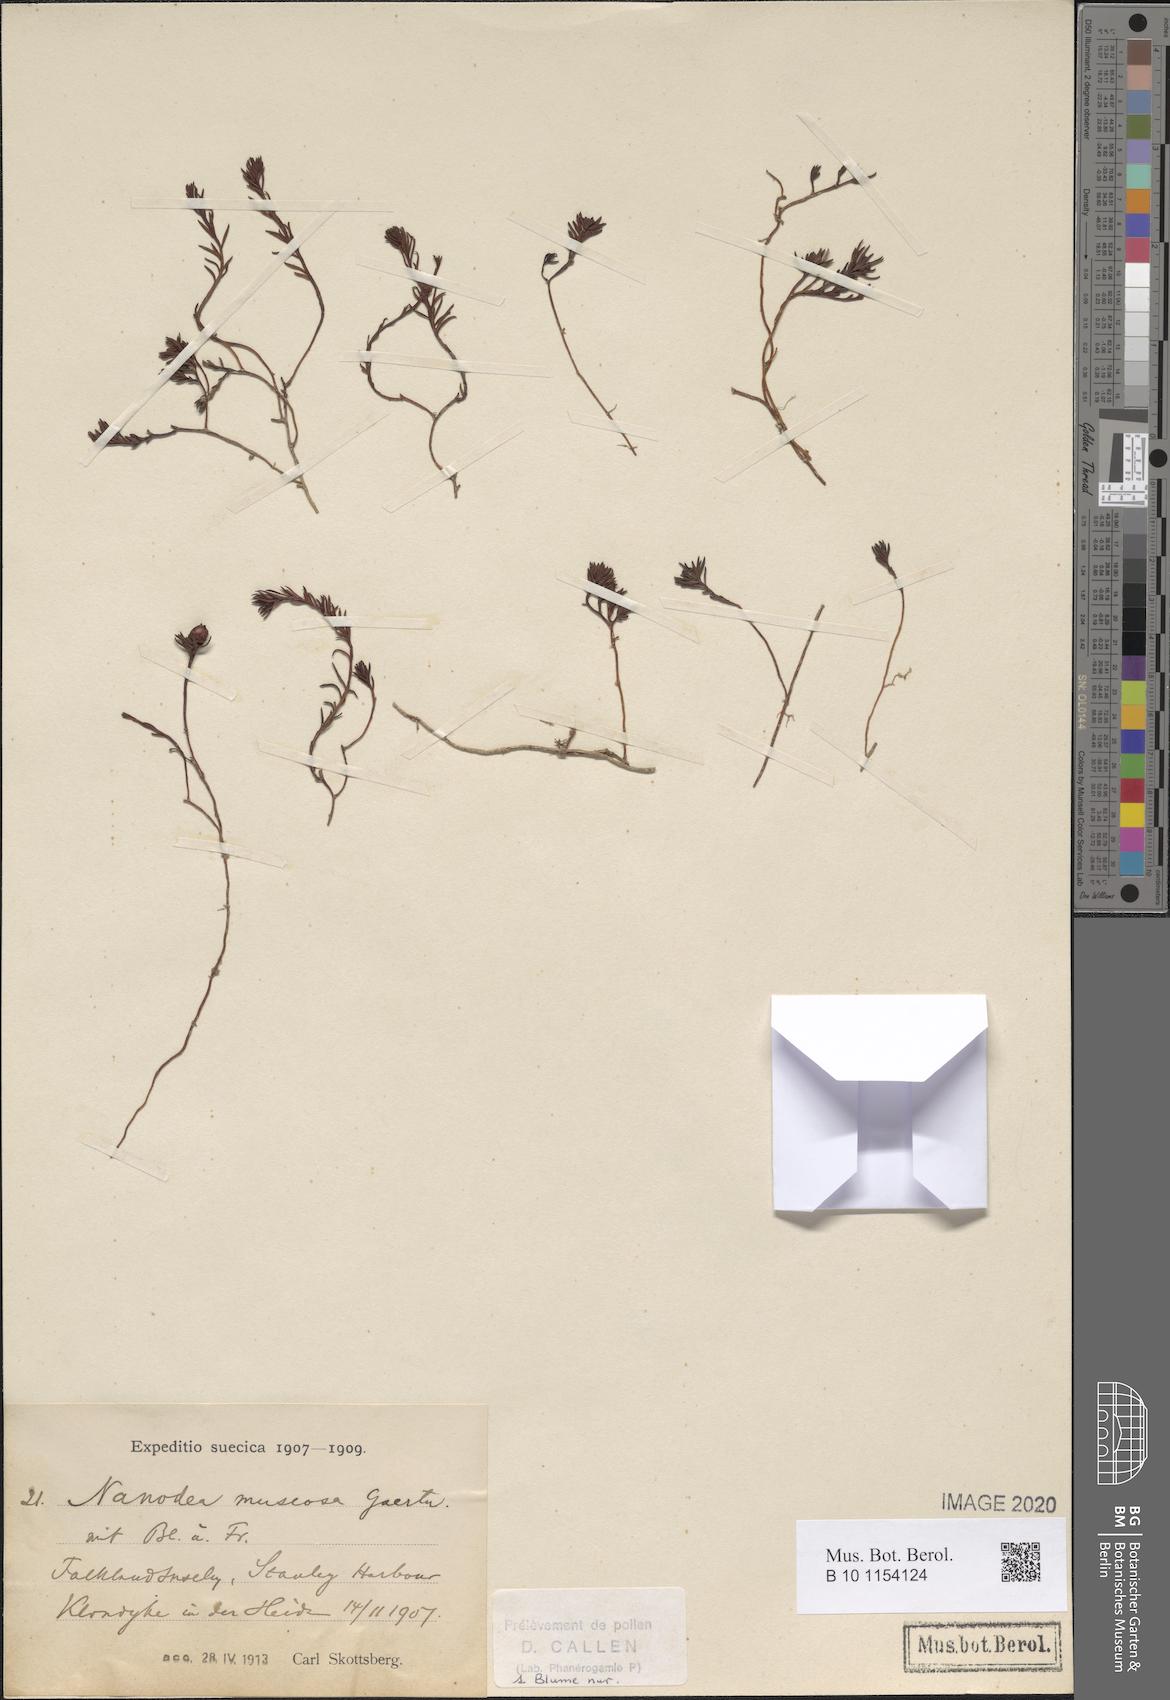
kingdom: Plantae
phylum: Tracheophyta
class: Magnoliopsida
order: Santalales
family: Nanodeaceae
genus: Nanodea
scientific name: Nanodea muscosa
